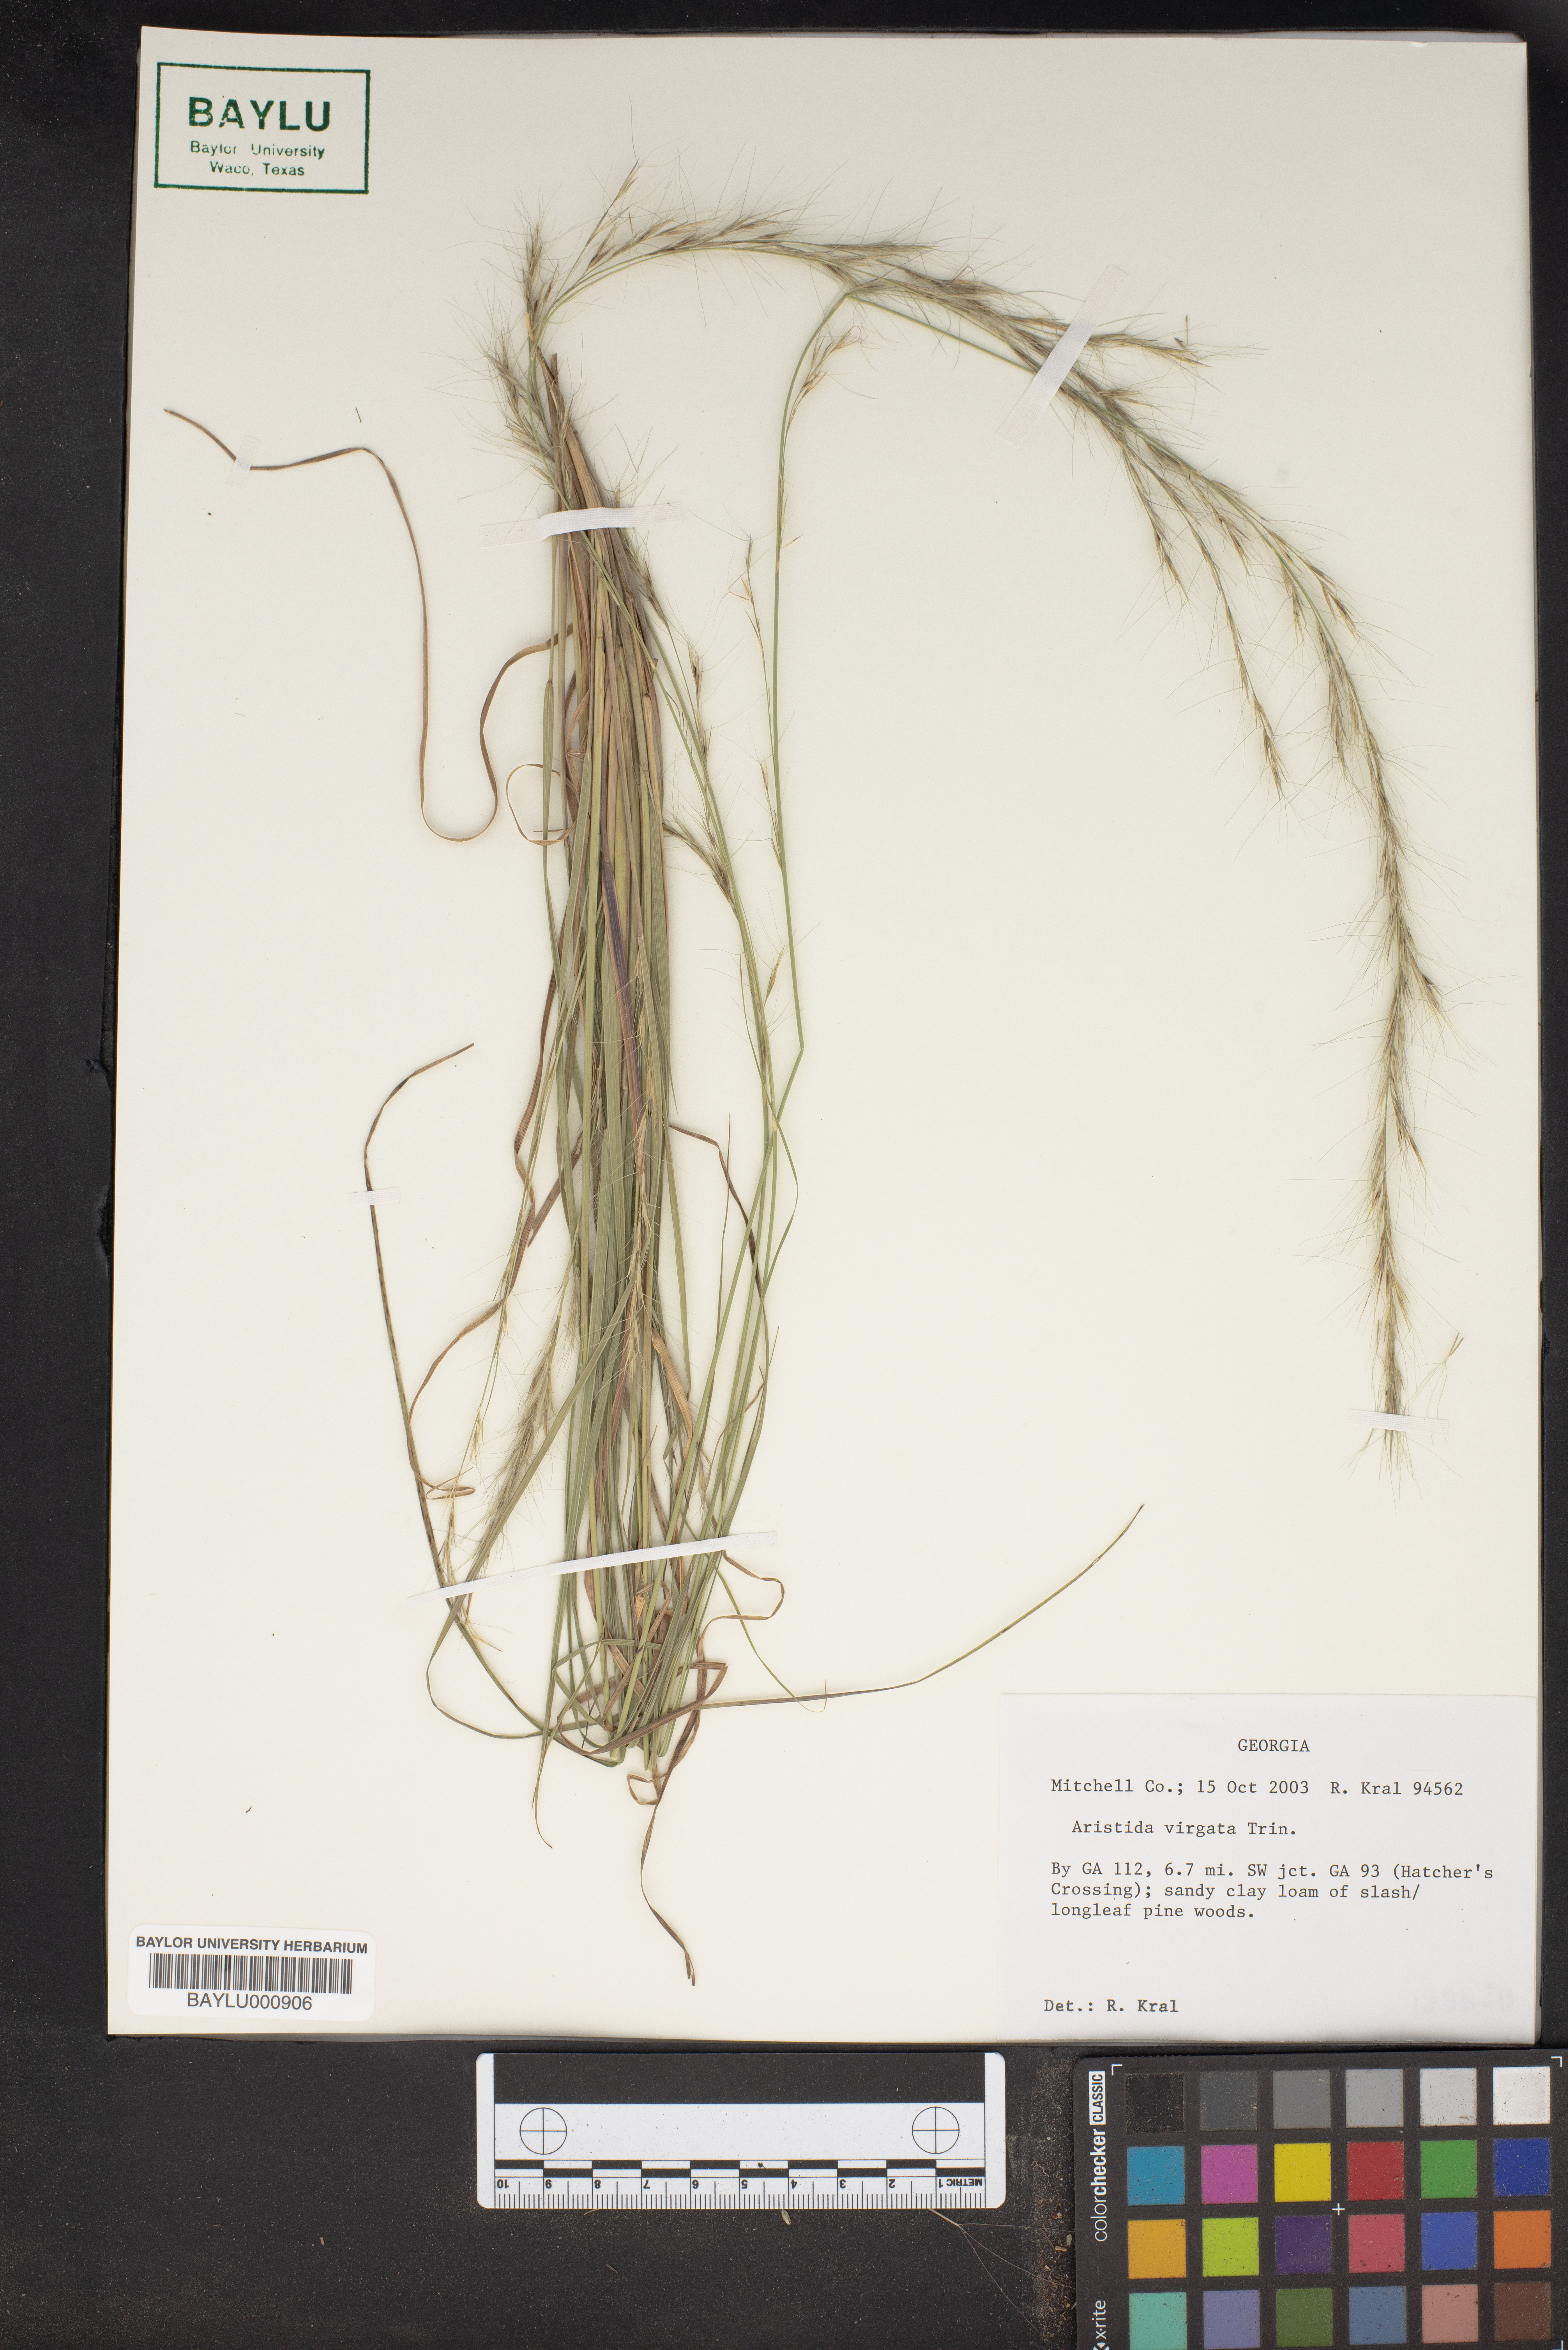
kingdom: Plantae
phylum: Tracheophyta
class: Liliopsida
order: Poales
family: Poaceae
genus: Aristida
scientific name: Aristida virgata
